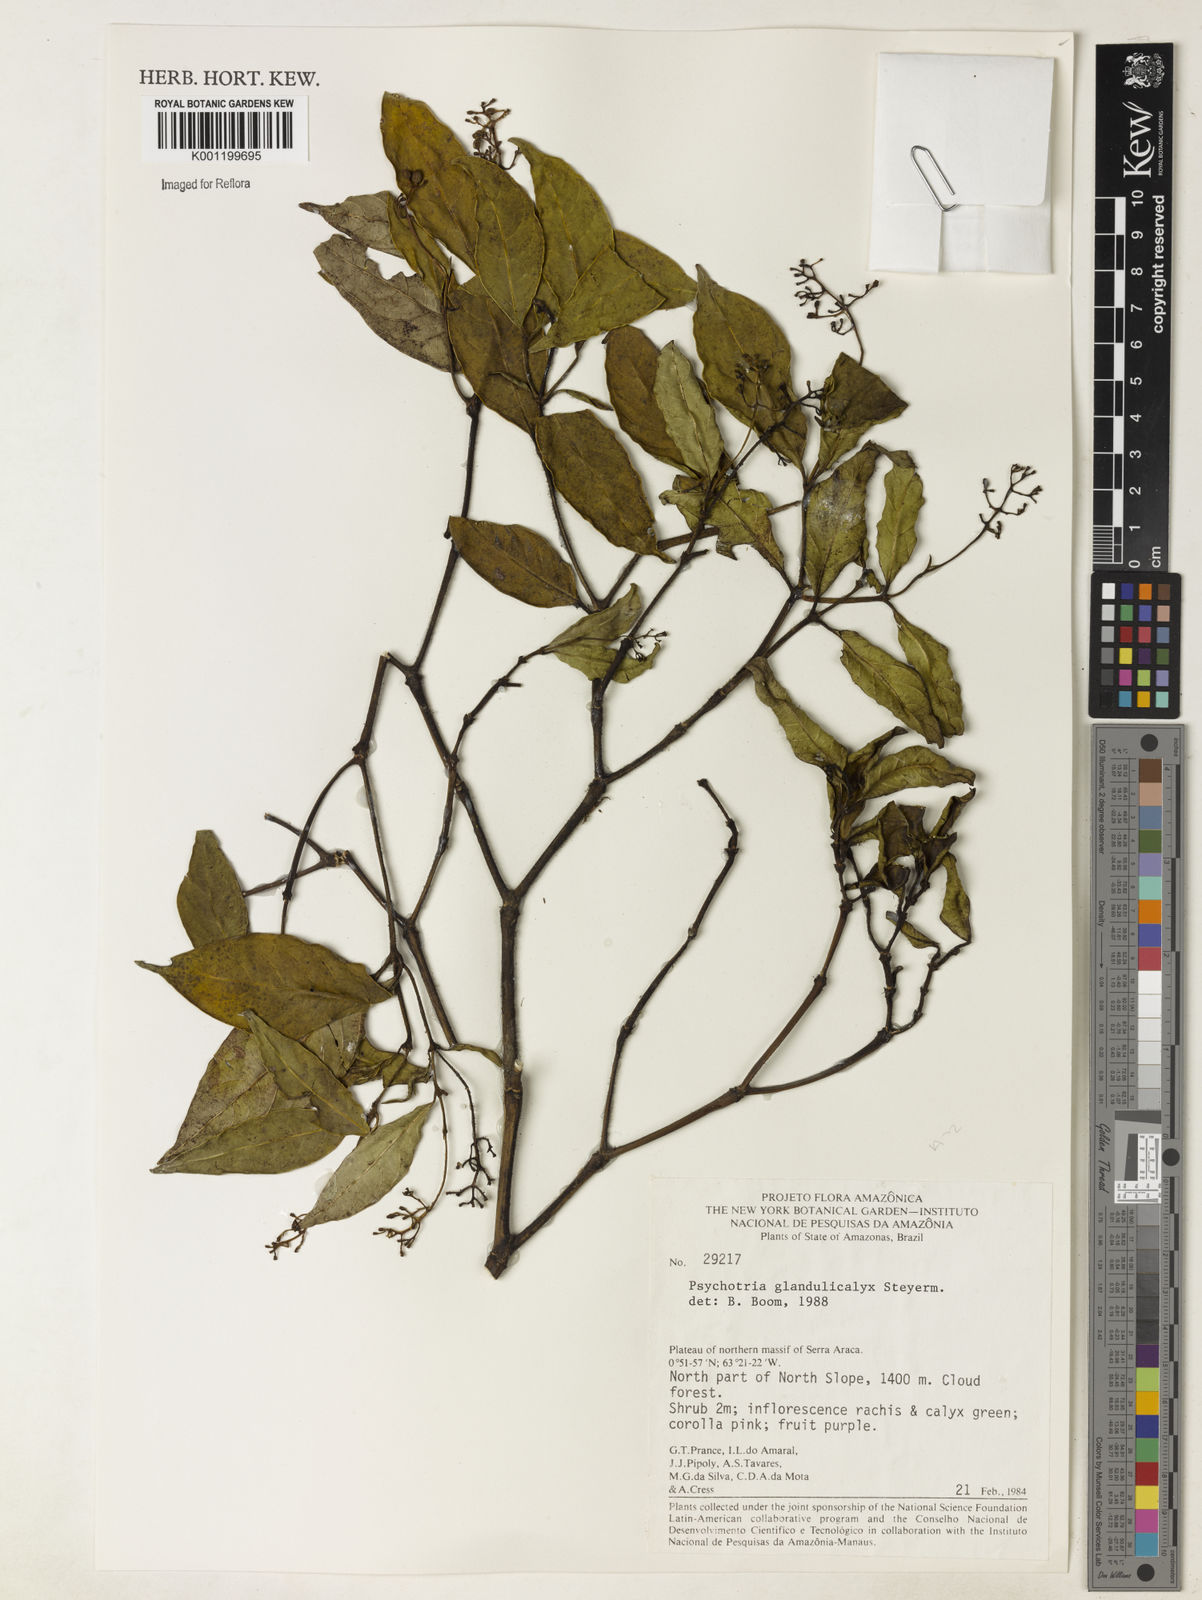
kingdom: Plantae
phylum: Tracheophyta
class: Magnoliopsida
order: Gentianales
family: Rubiaceae
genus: Palicourea
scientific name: Palicourea glandulicalyx
